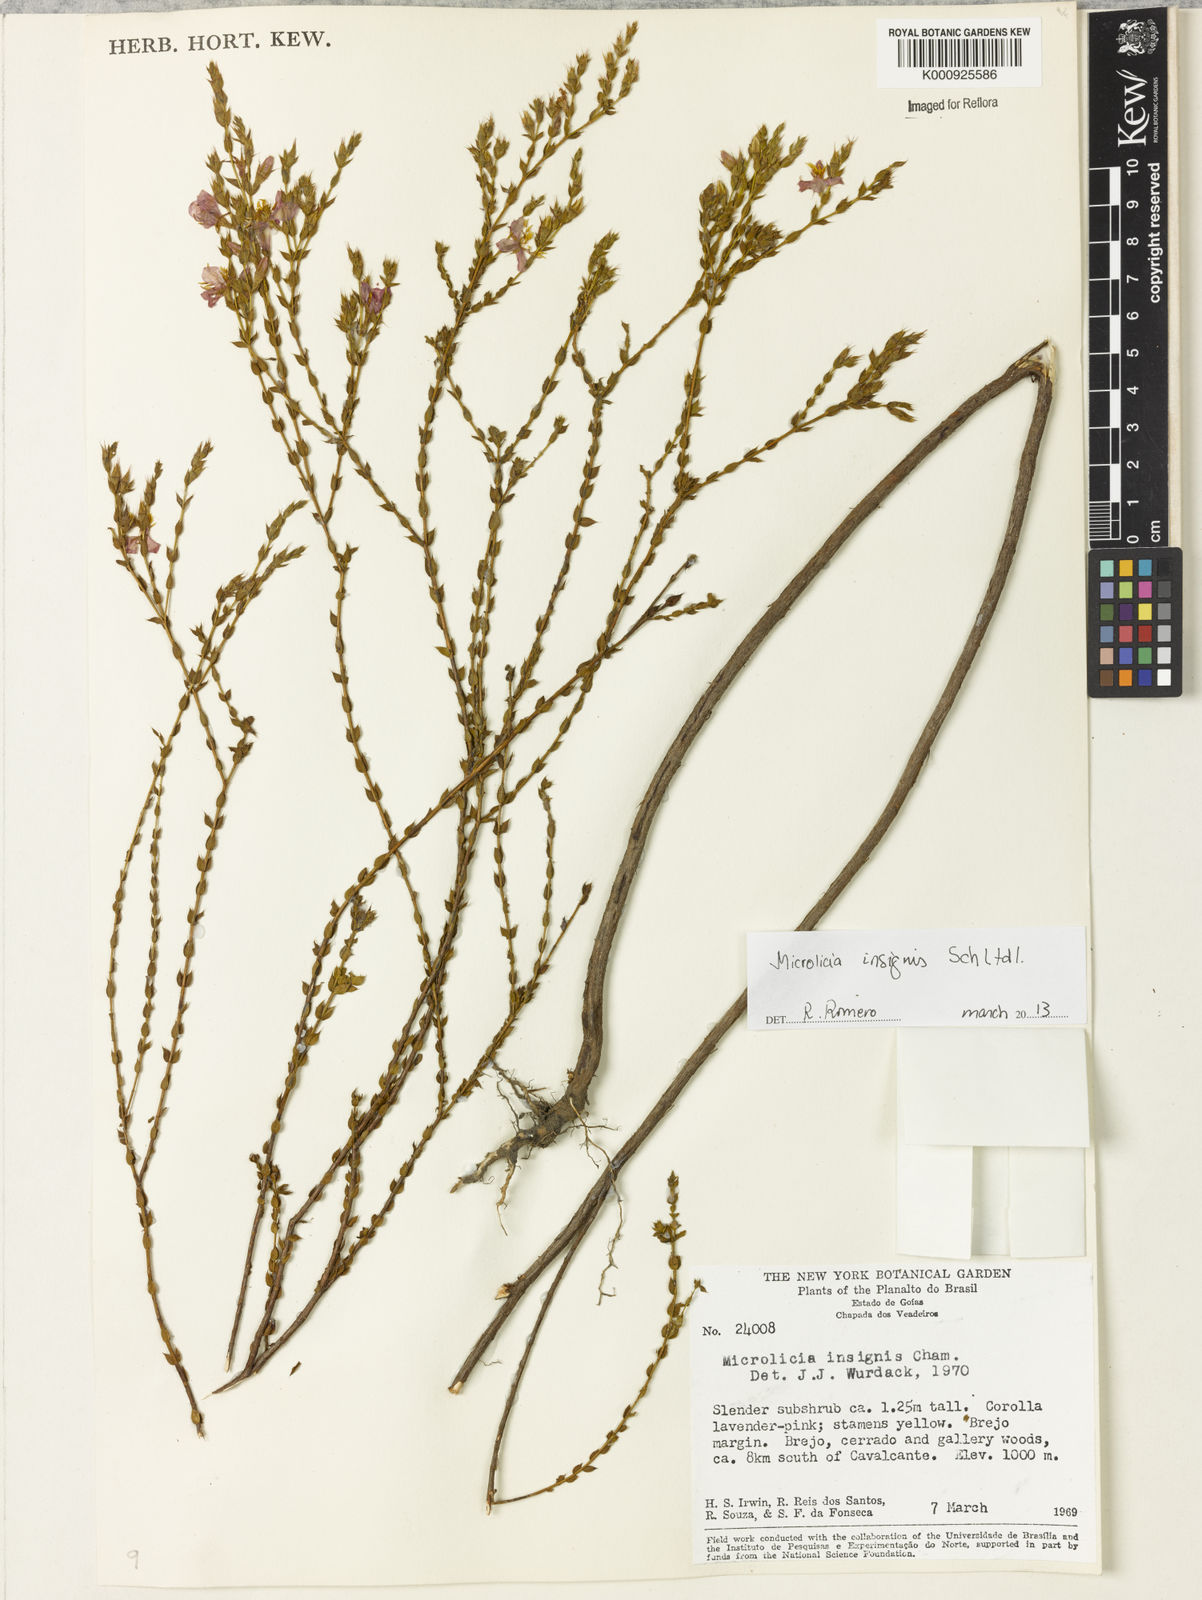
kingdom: Plantae
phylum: Tracheophyta
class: Magnoliopsida
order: Myrtales
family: Melastomataceae
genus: Microlicia
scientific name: Microlicia
